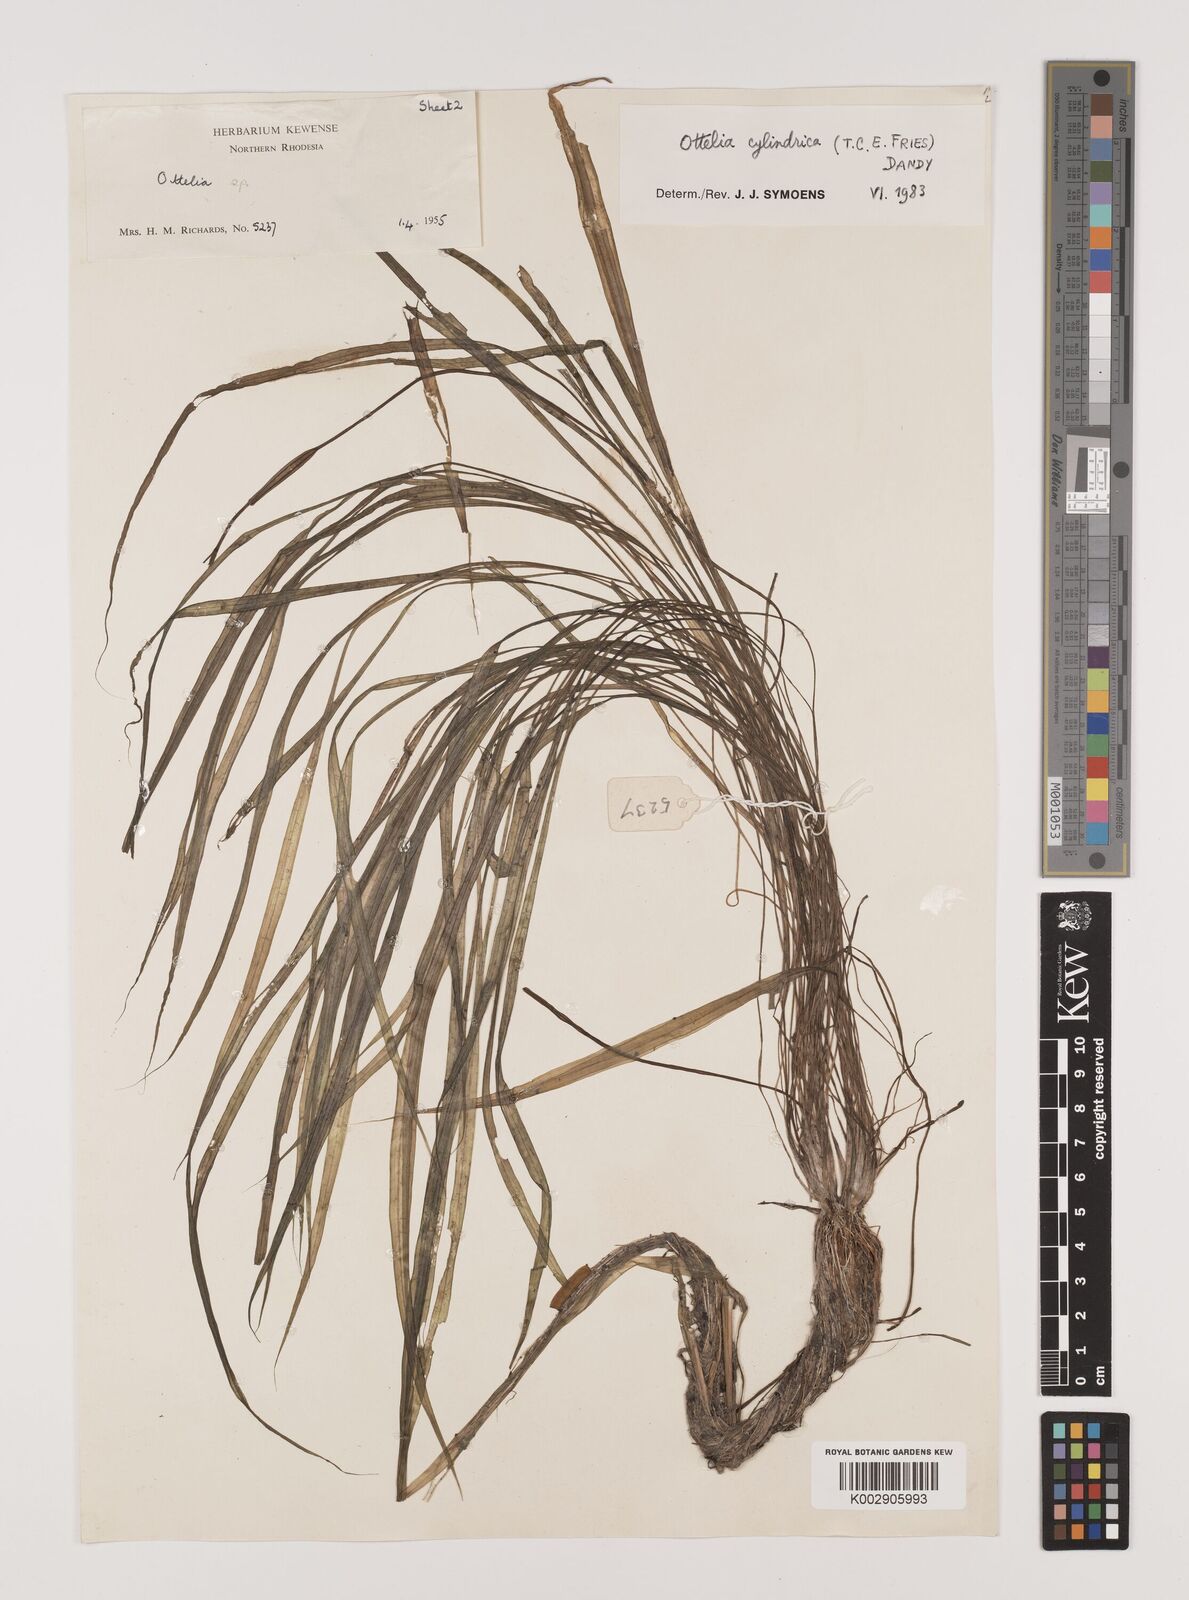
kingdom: Plantae
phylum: Tracheophyta
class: Liliopsida
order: Alismatales
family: Hydrocharitaceae
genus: Ottelia
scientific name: Ottelia cylindrica
